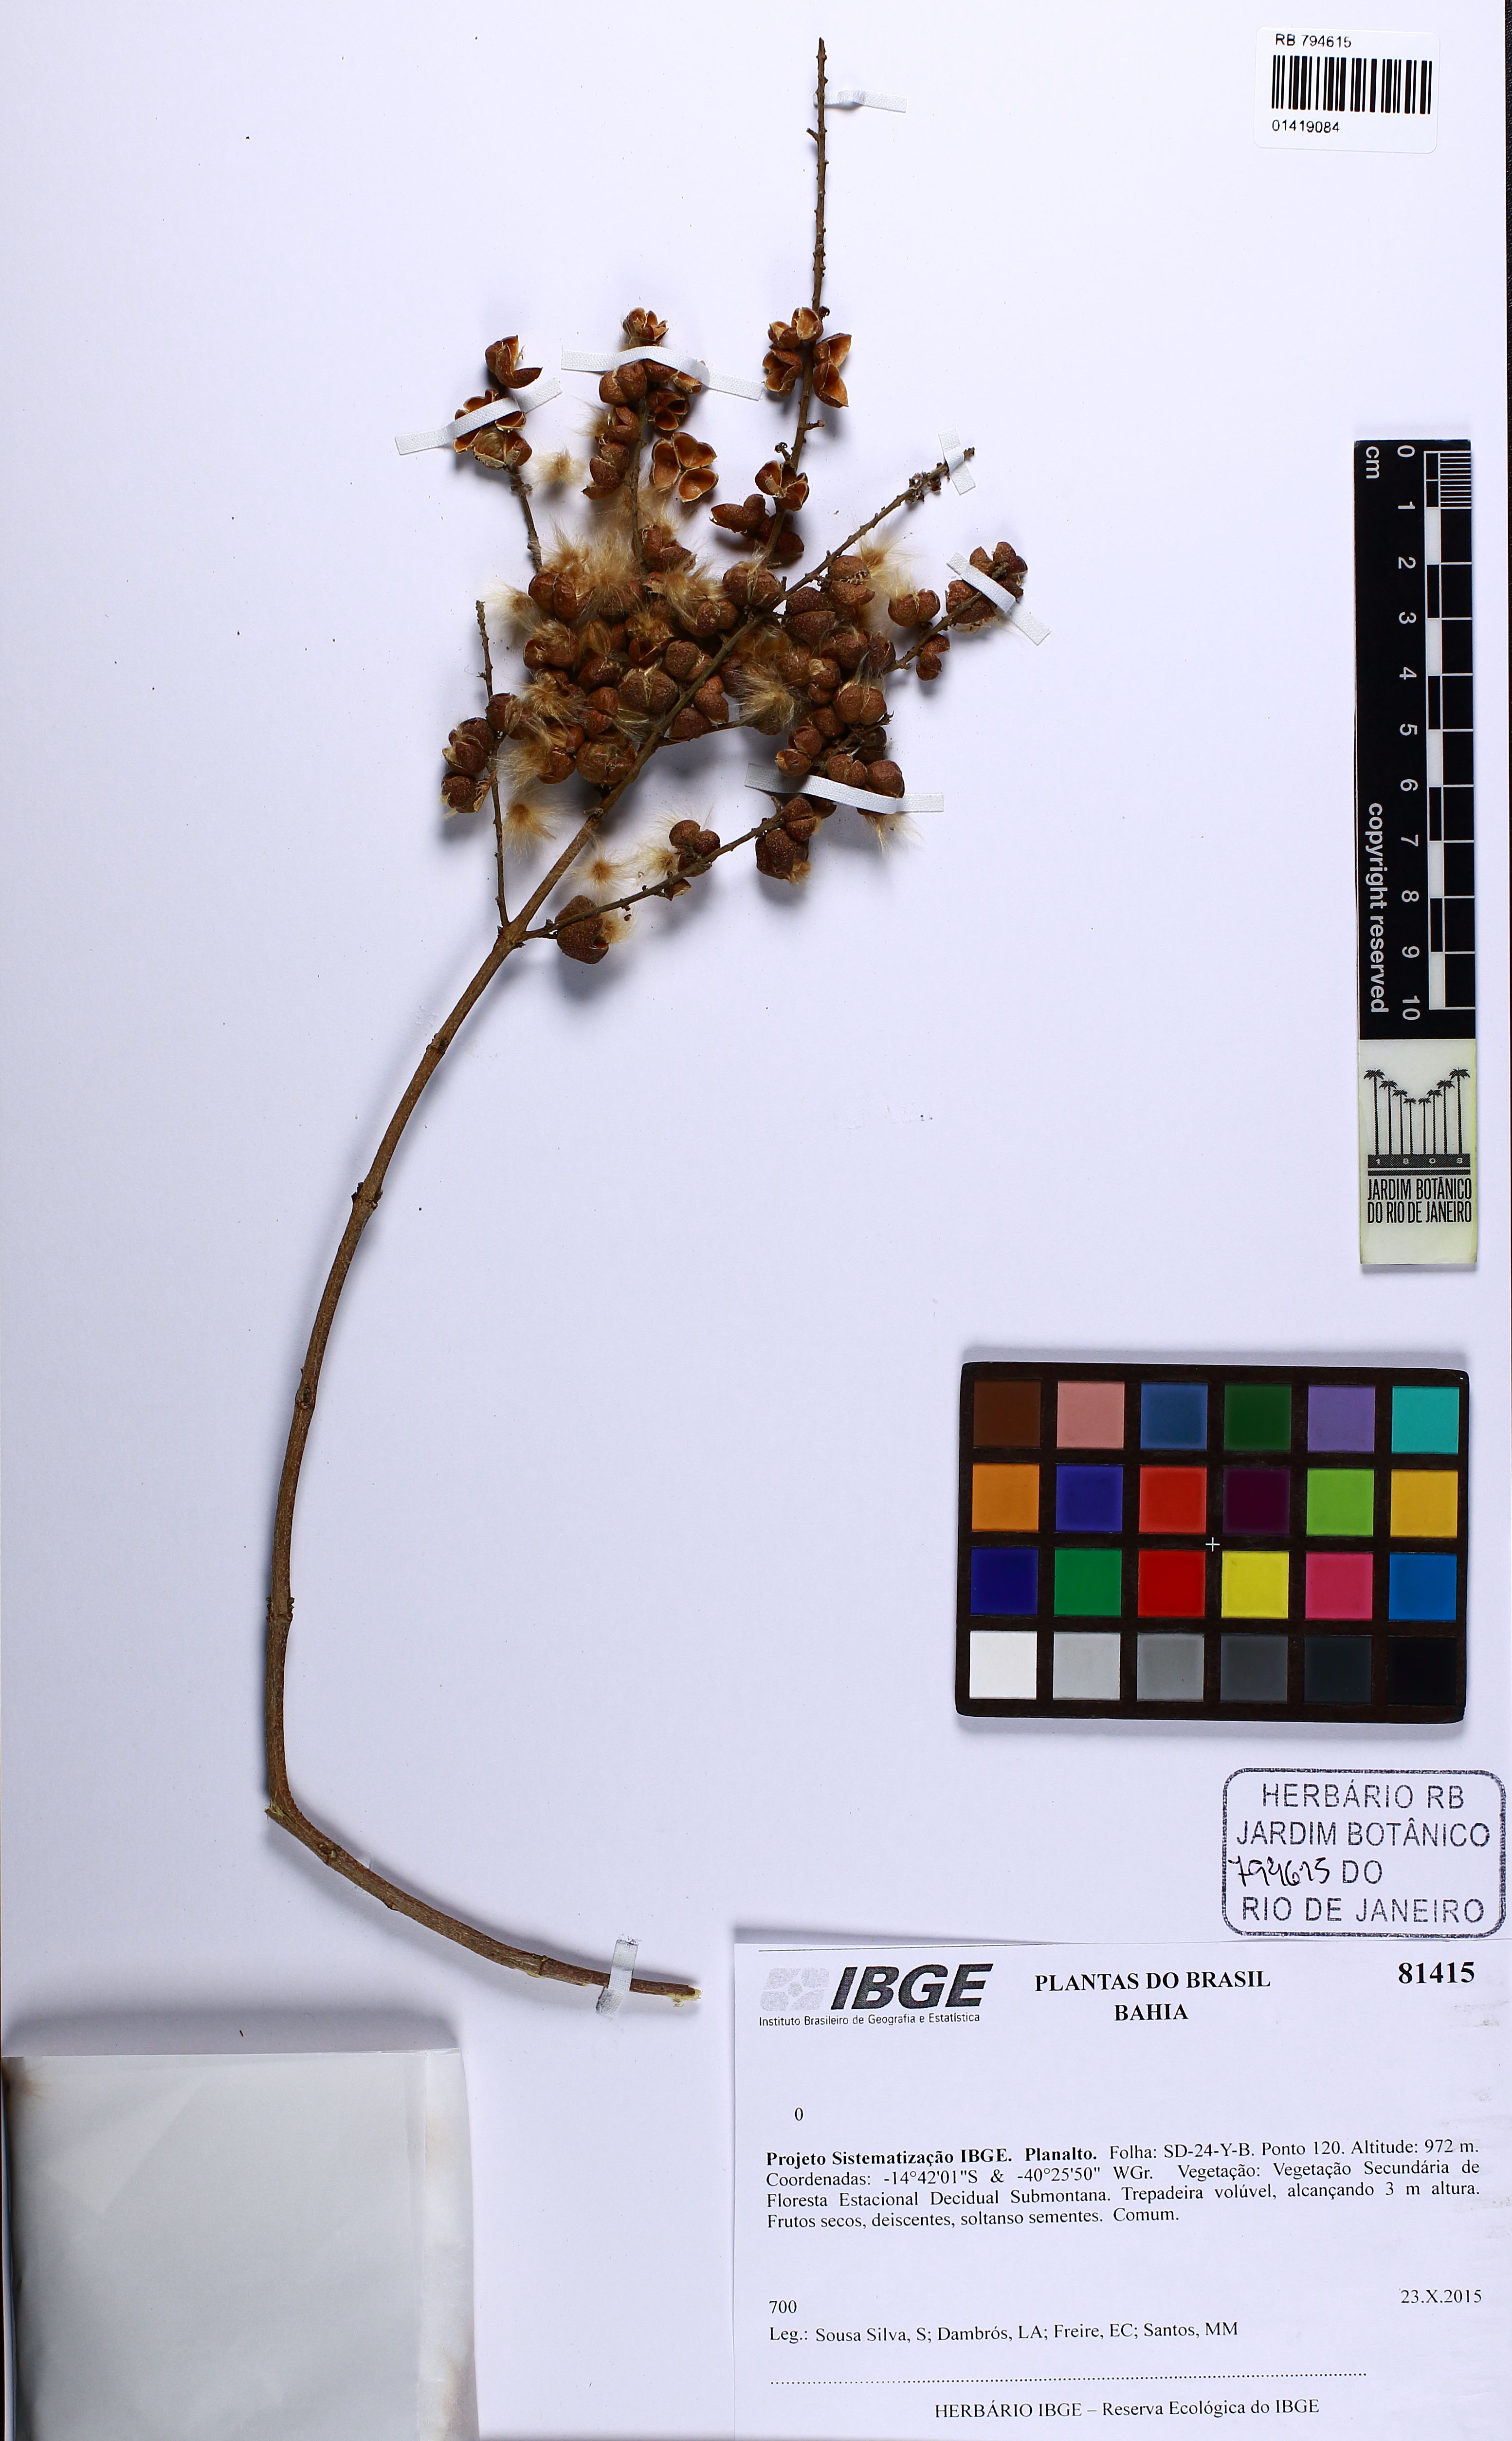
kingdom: Plantae
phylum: Tracheophyta
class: Magnoliopsida
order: Malpighiales
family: Trigoniaceae
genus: Trigonia
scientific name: Trigonia
